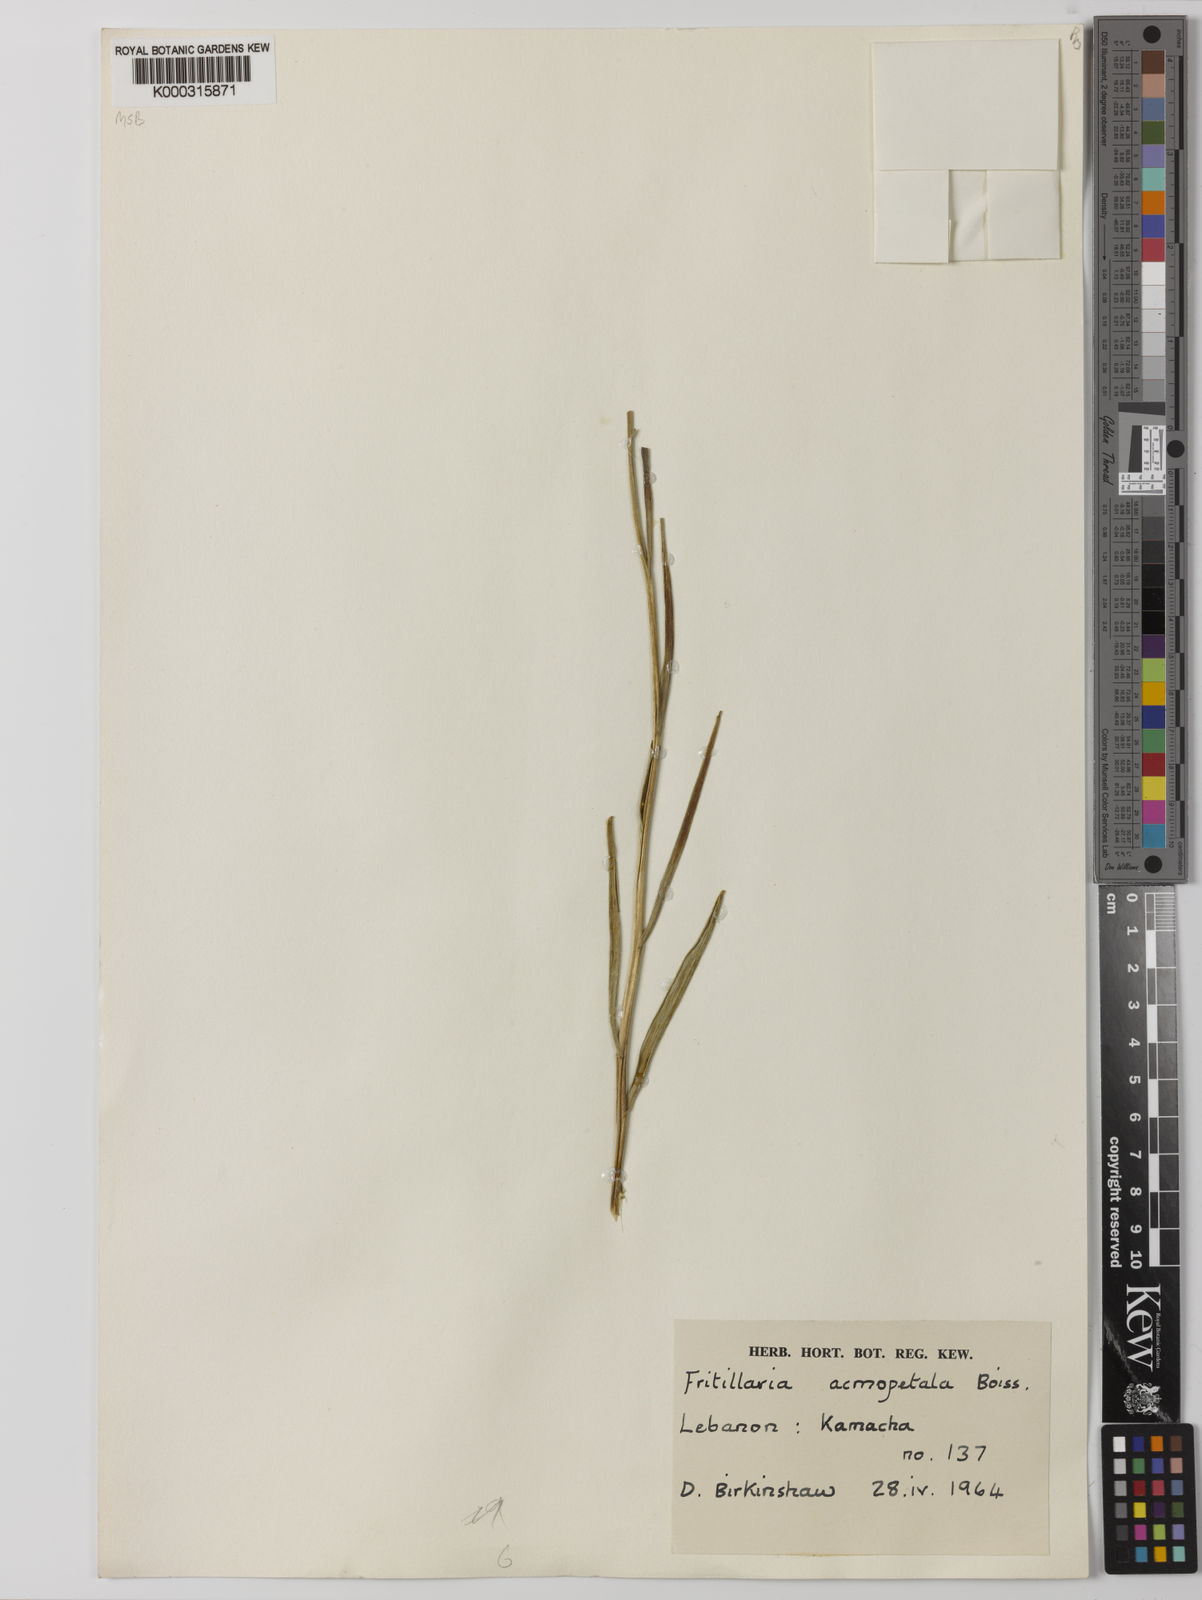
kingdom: Plantae
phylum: Tracheophyta
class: Liliopsida
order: Liliales
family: Liliaceae
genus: Fritillaria
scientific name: Fritillaria acmopetala
